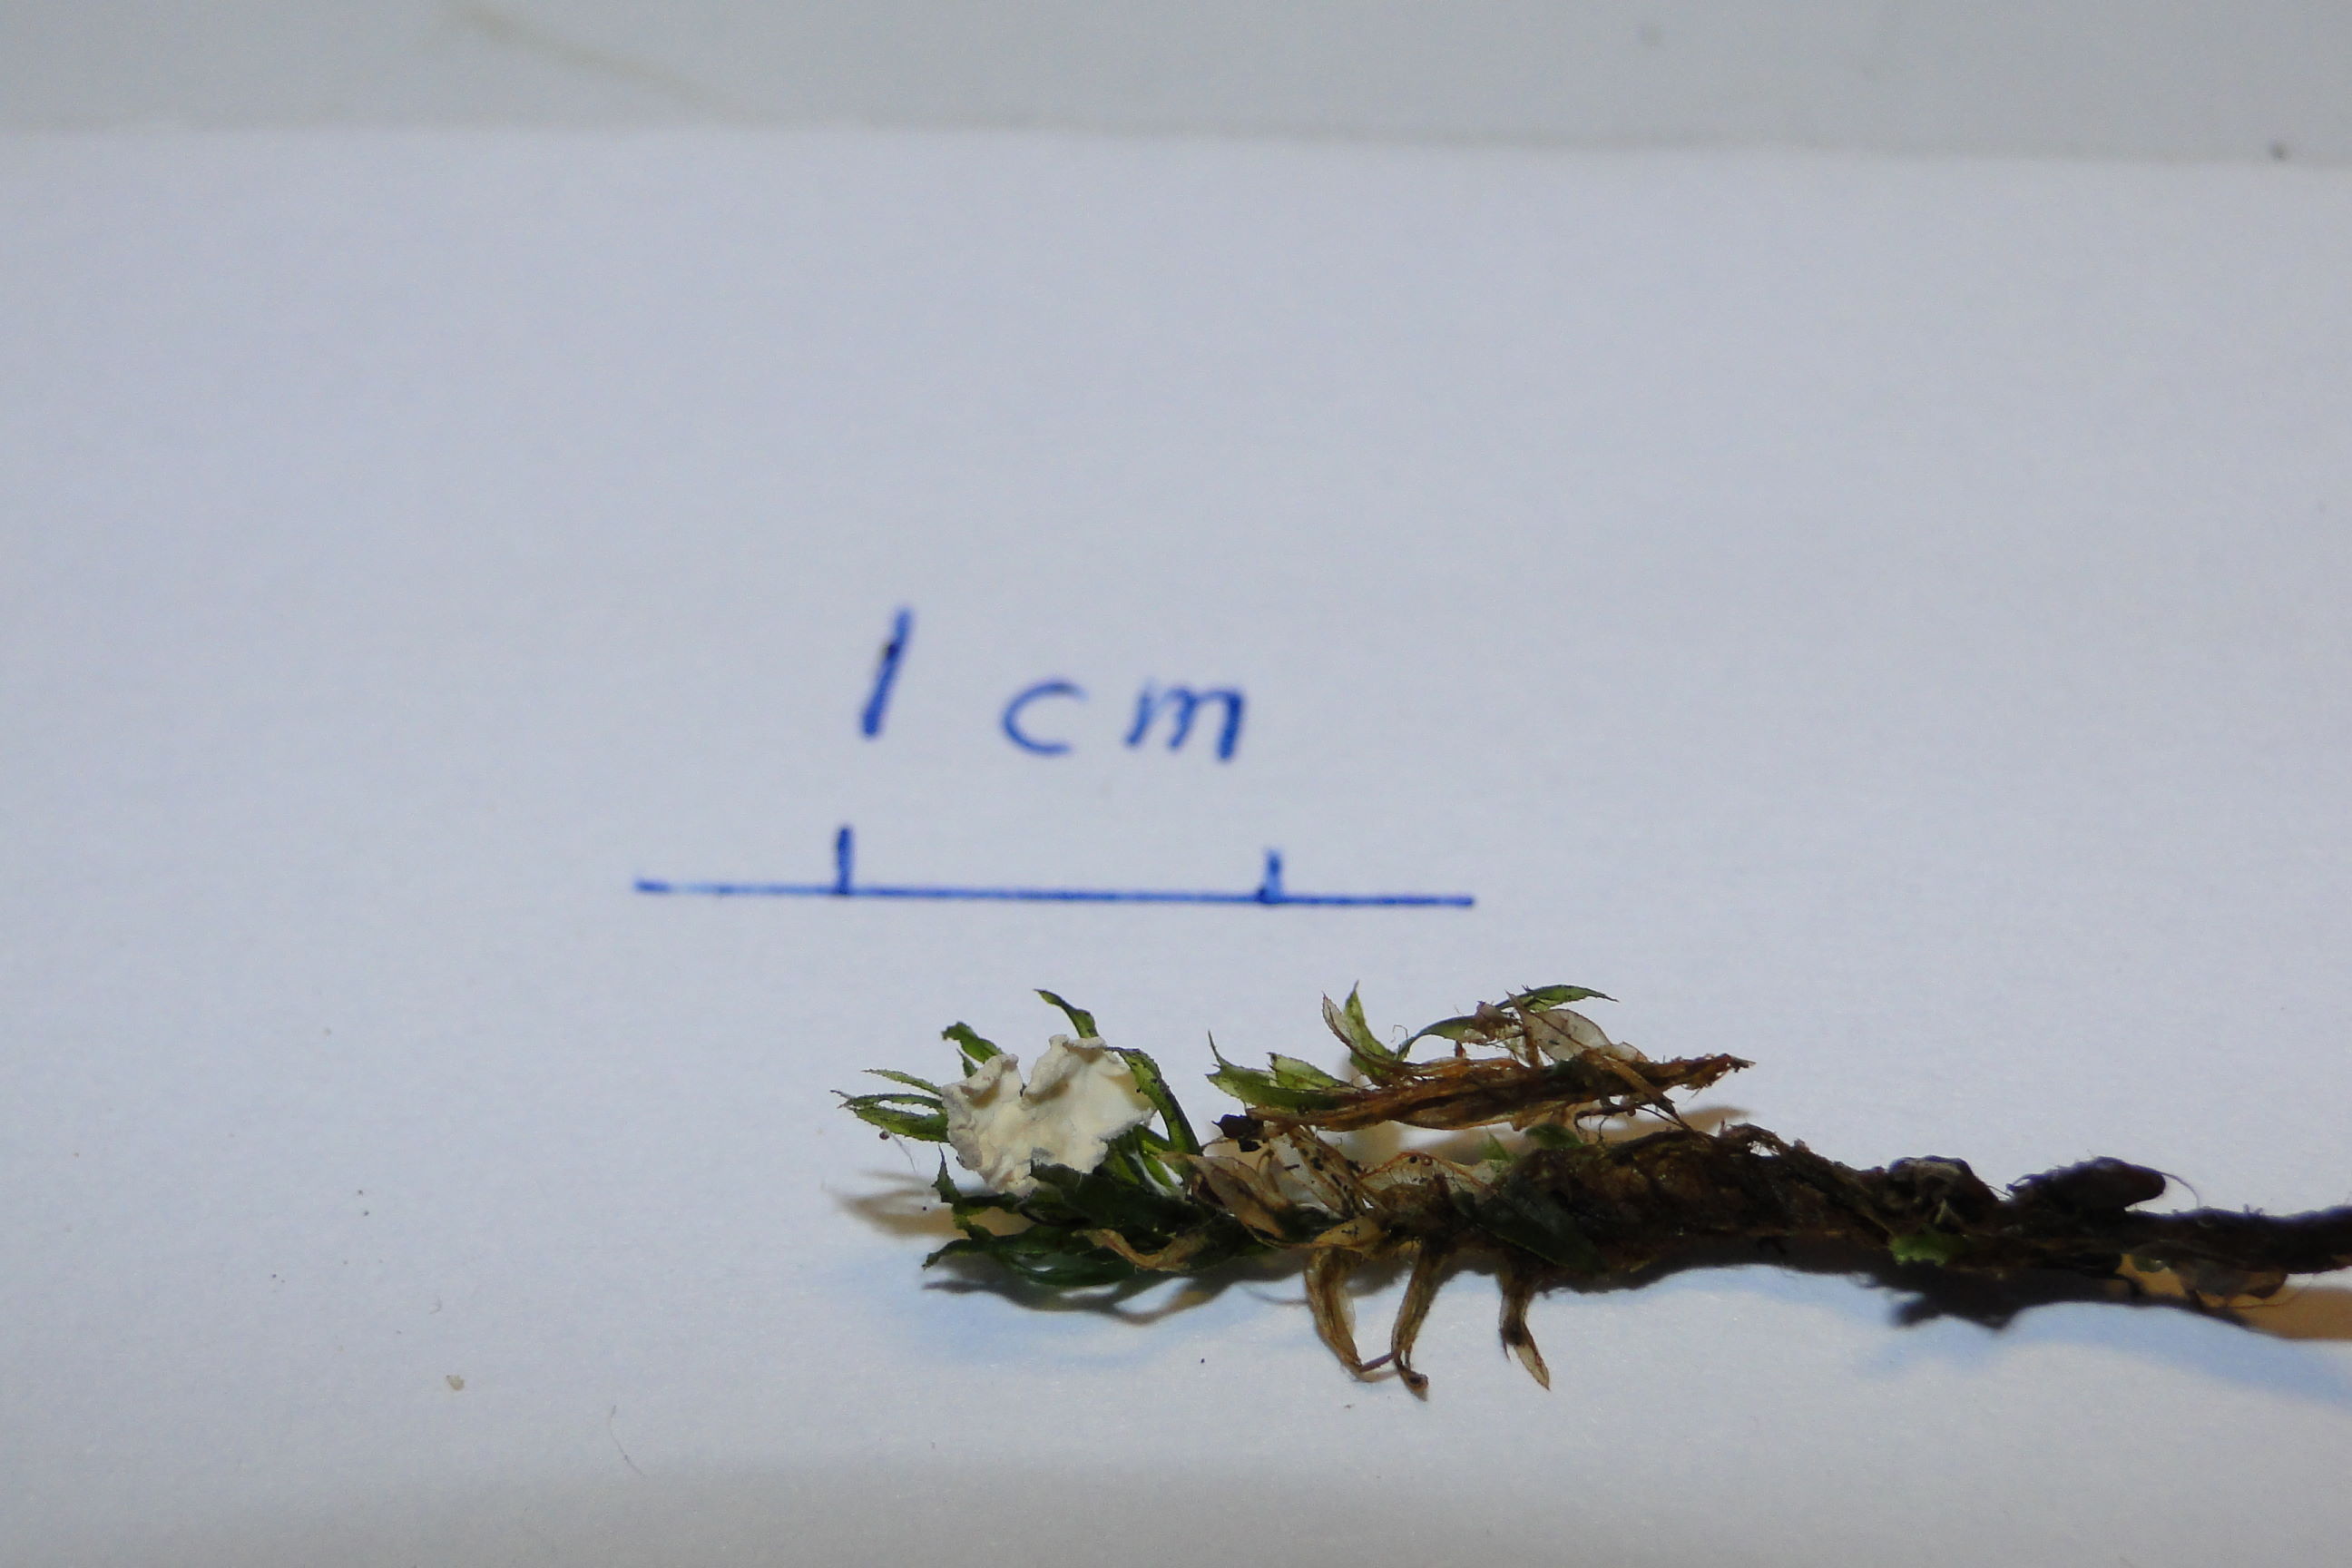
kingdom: Fungi
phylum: Basidiomycota
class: Agaricomycetes
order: Agaricales
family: Tricholomataceae
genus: Rimbachia
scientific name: Rimbachia arachnoidea
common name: Almindelig mosskål
